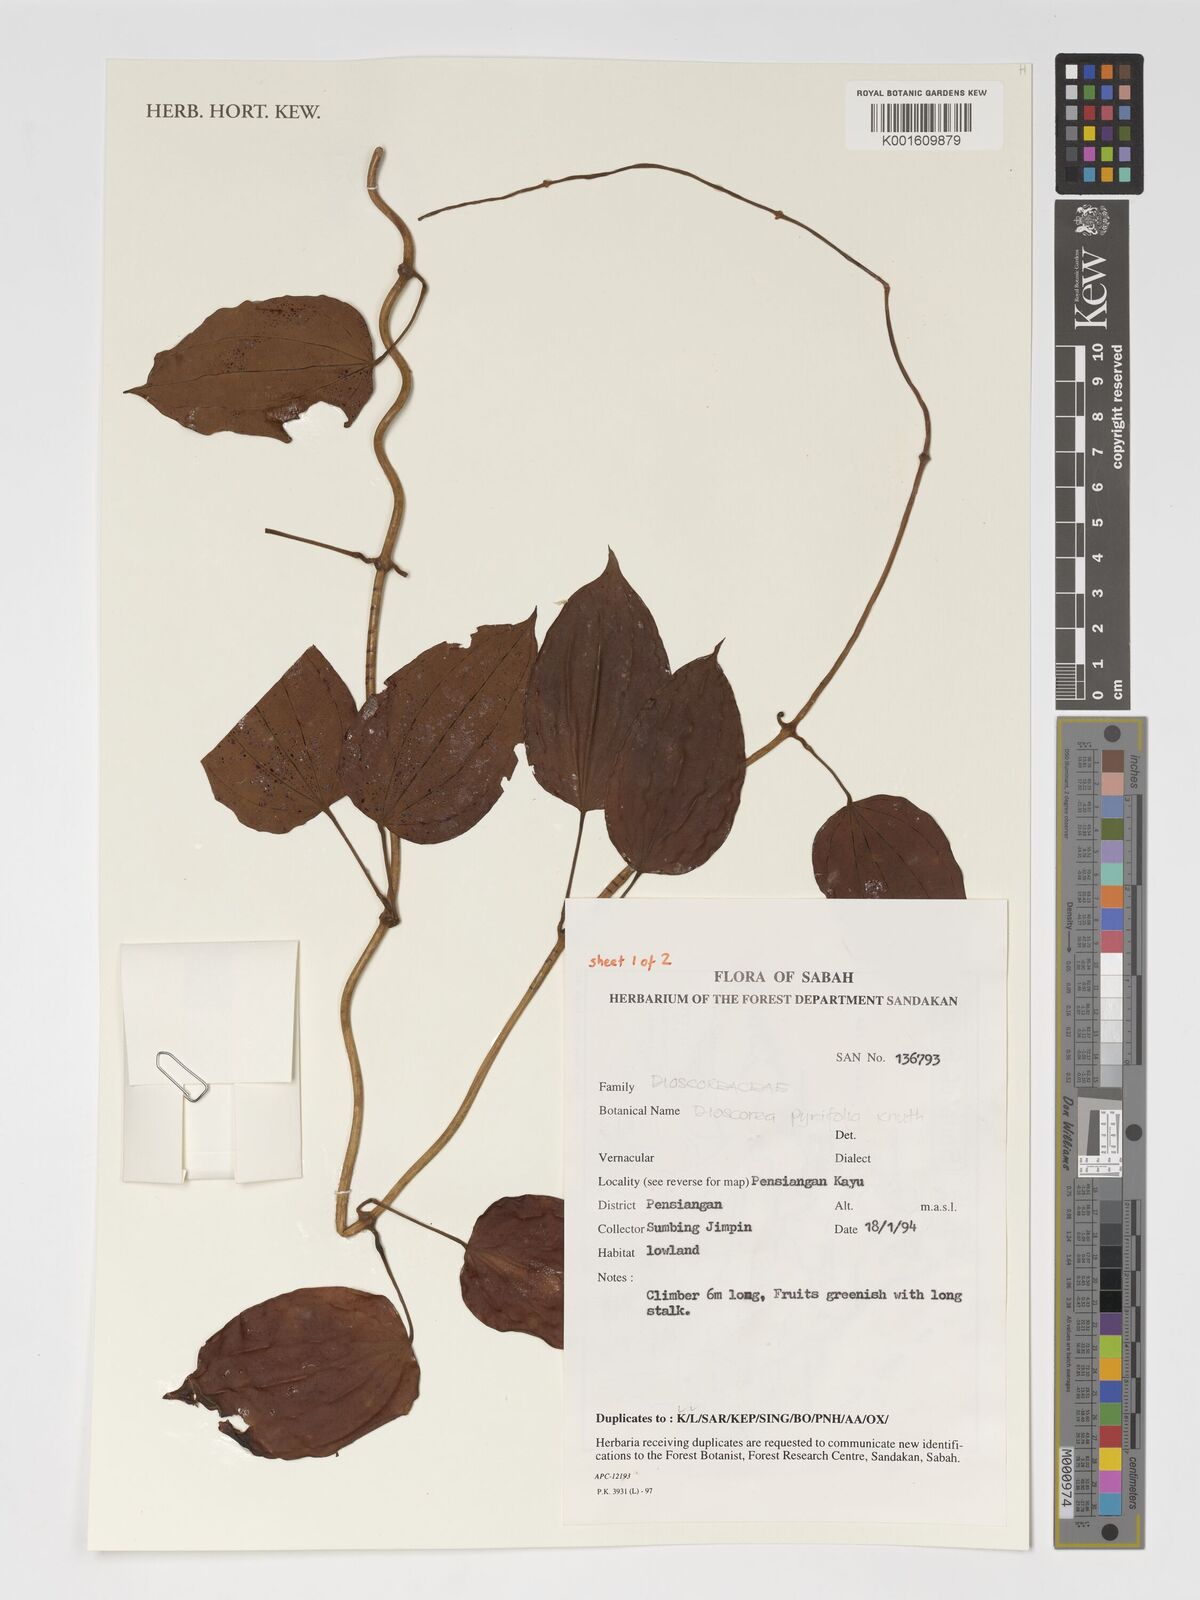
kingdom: Plantae
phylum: Tracheophyta
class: Liliopsida
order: Dioscoreales
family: Dioscoreaceae
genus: Dioscorea
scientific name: Dioscorea pyrifolia
